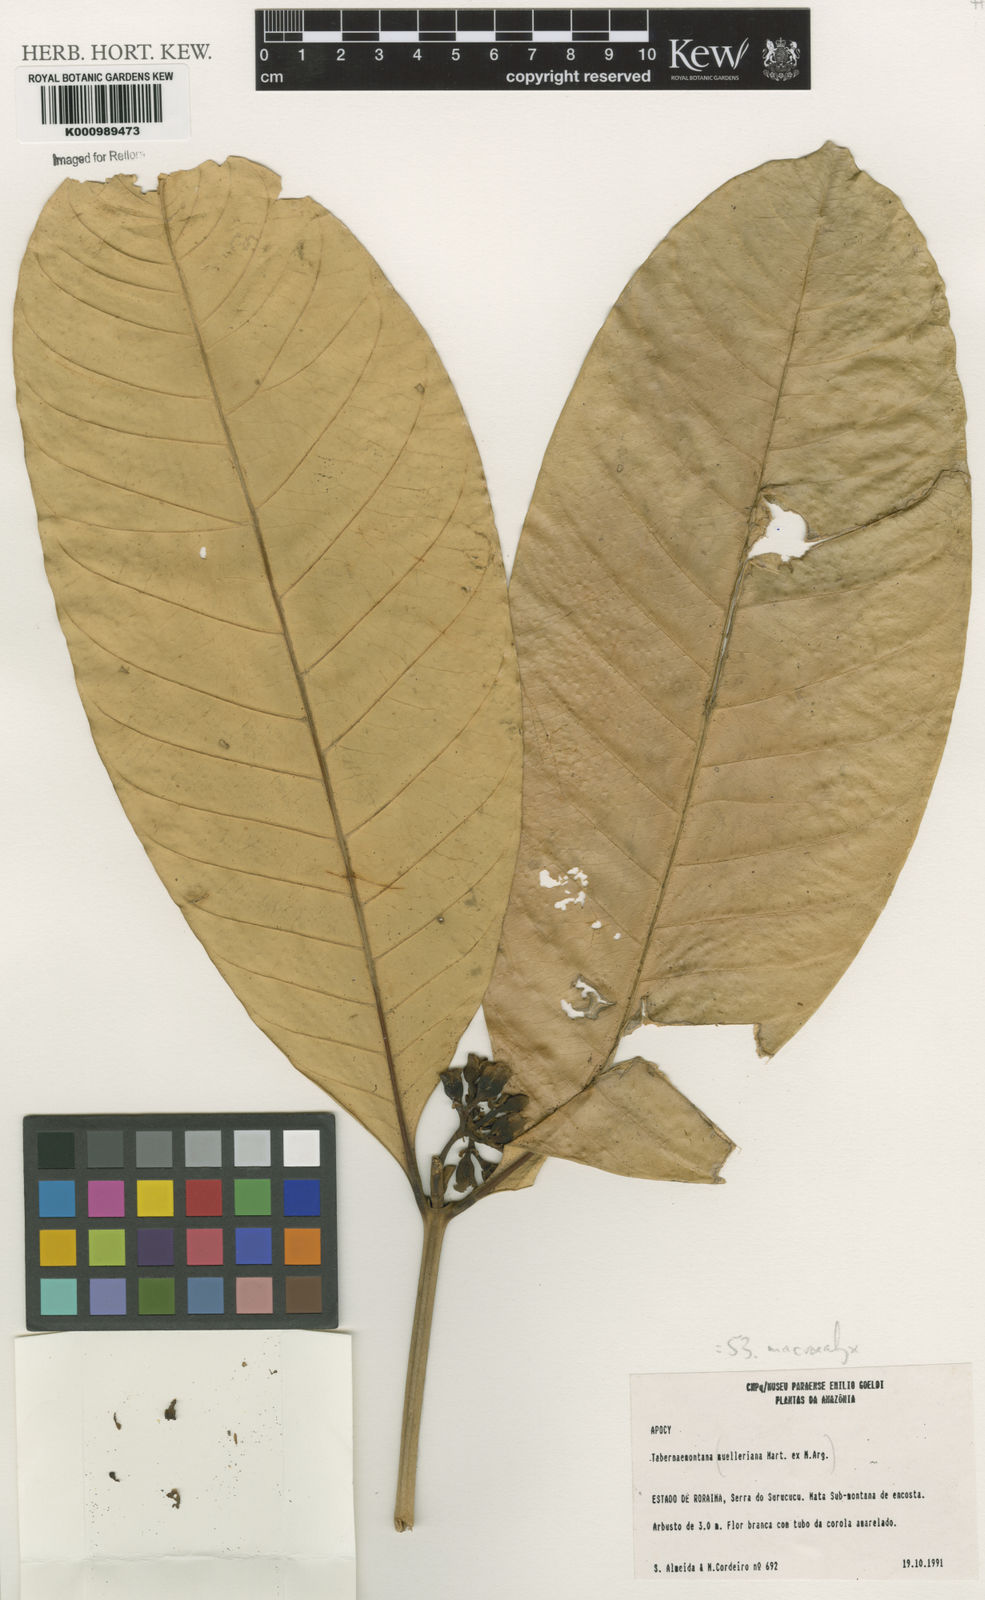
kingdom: Plantae
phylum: Tracheophyta
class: Magnoliopsida
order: Gentianales
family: Apocynaceae
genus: Tabernaemontana
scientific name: Tabernaemontana
